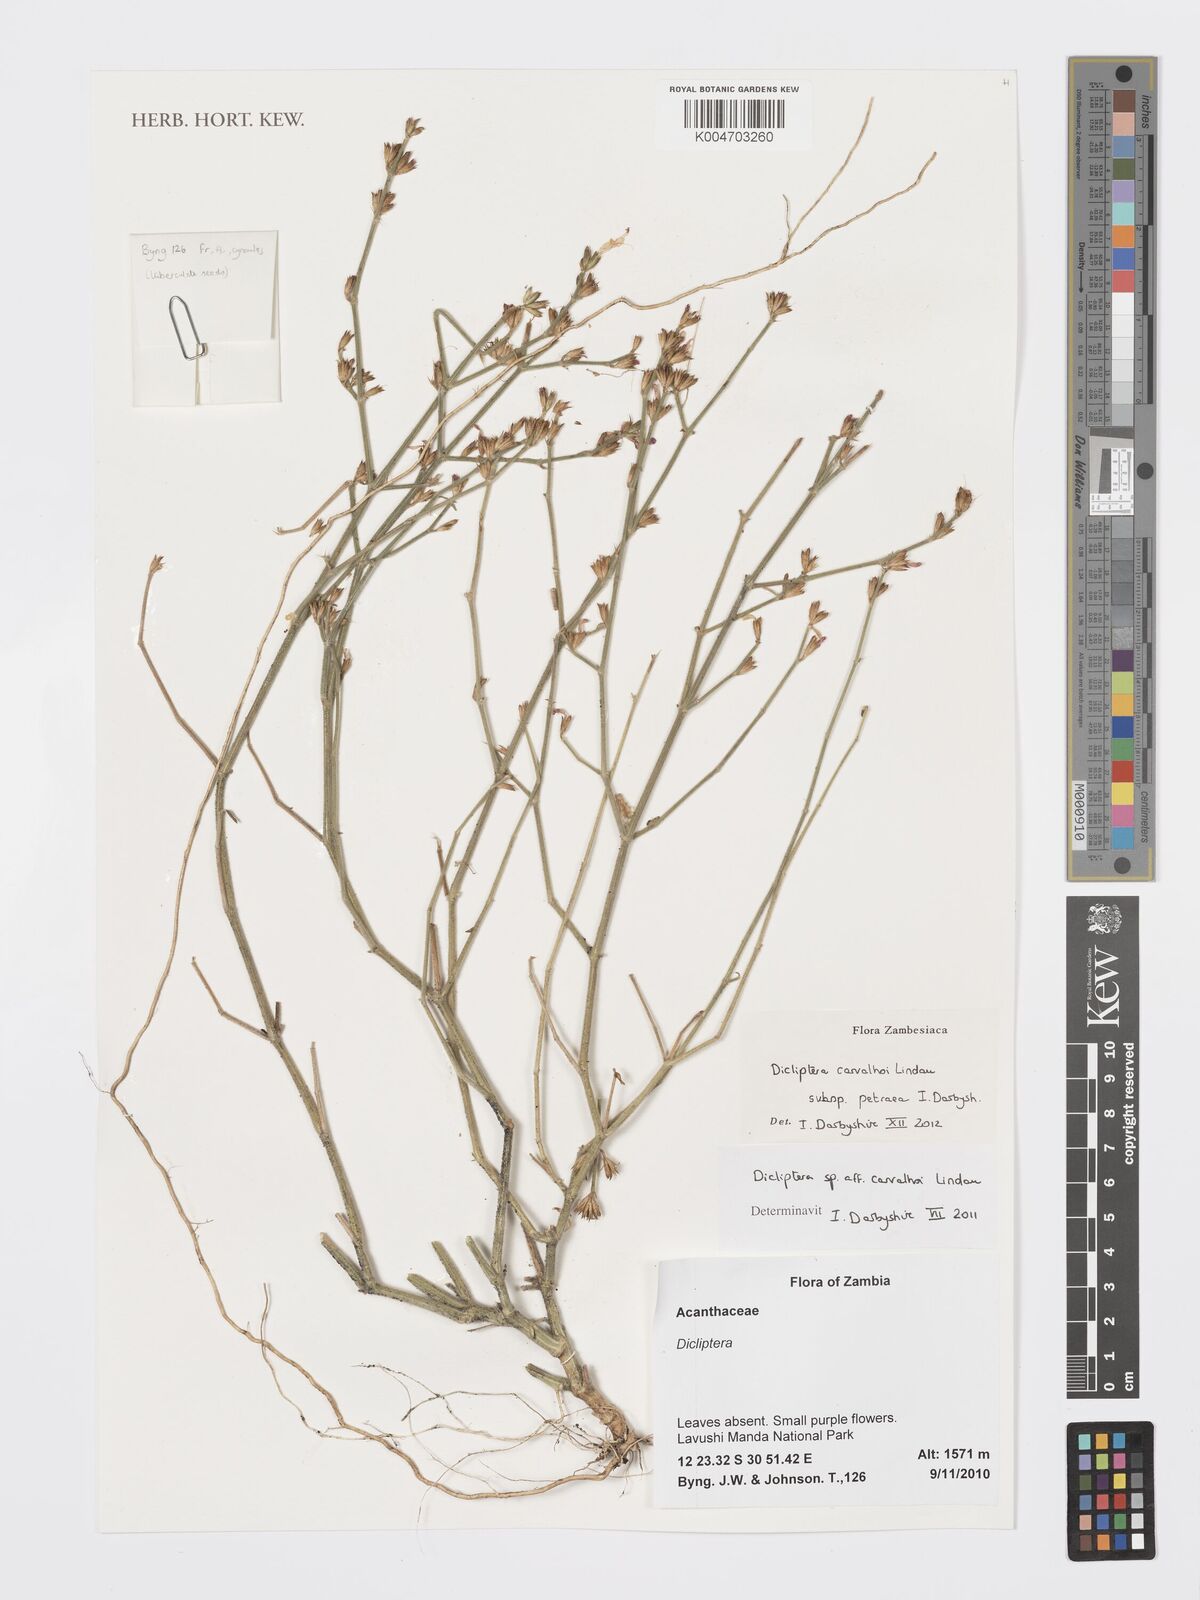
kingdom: Plantae
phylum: Tracheophyta
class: Magnoliopsida
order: Lamiales
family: Acanthaceae
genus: Dicliptera
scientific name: Dicliptera carvalhoi
